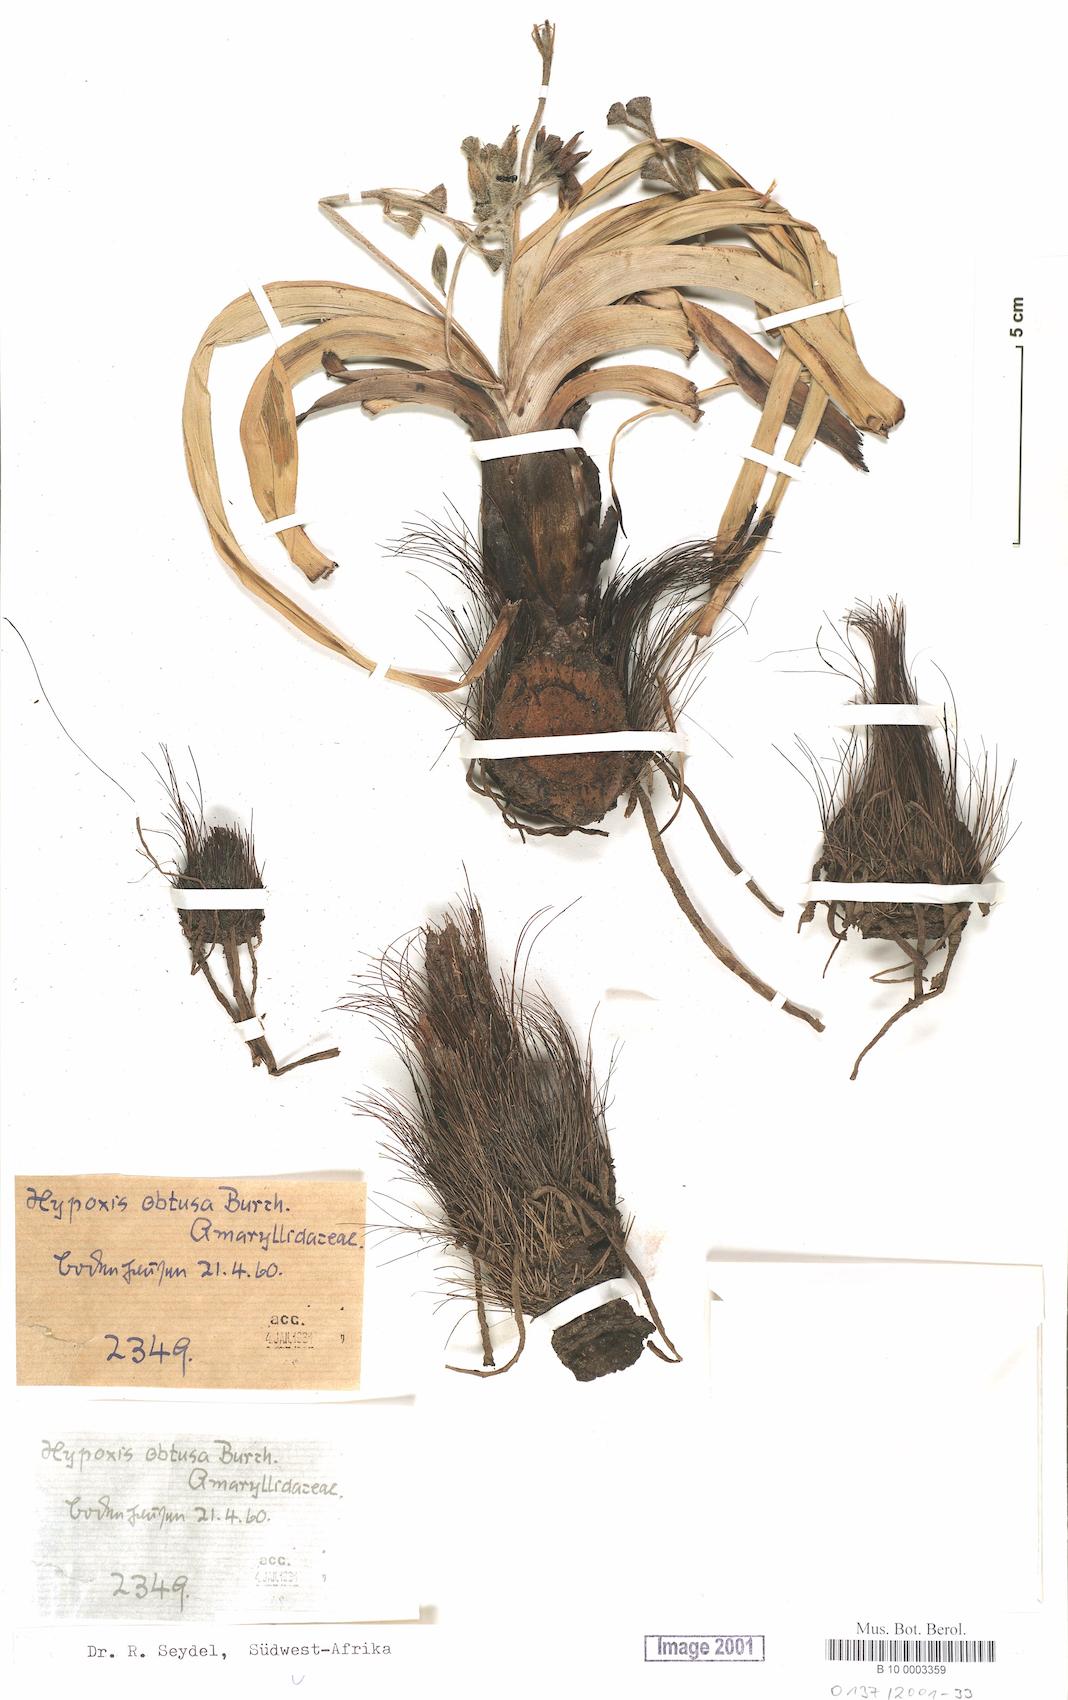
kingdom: Plantae
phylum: Tracheophyta
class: Liliopsida
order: Asparagales
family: Hypoxidaceae
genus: Hypoxis
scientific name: Hypoxis obtusa
